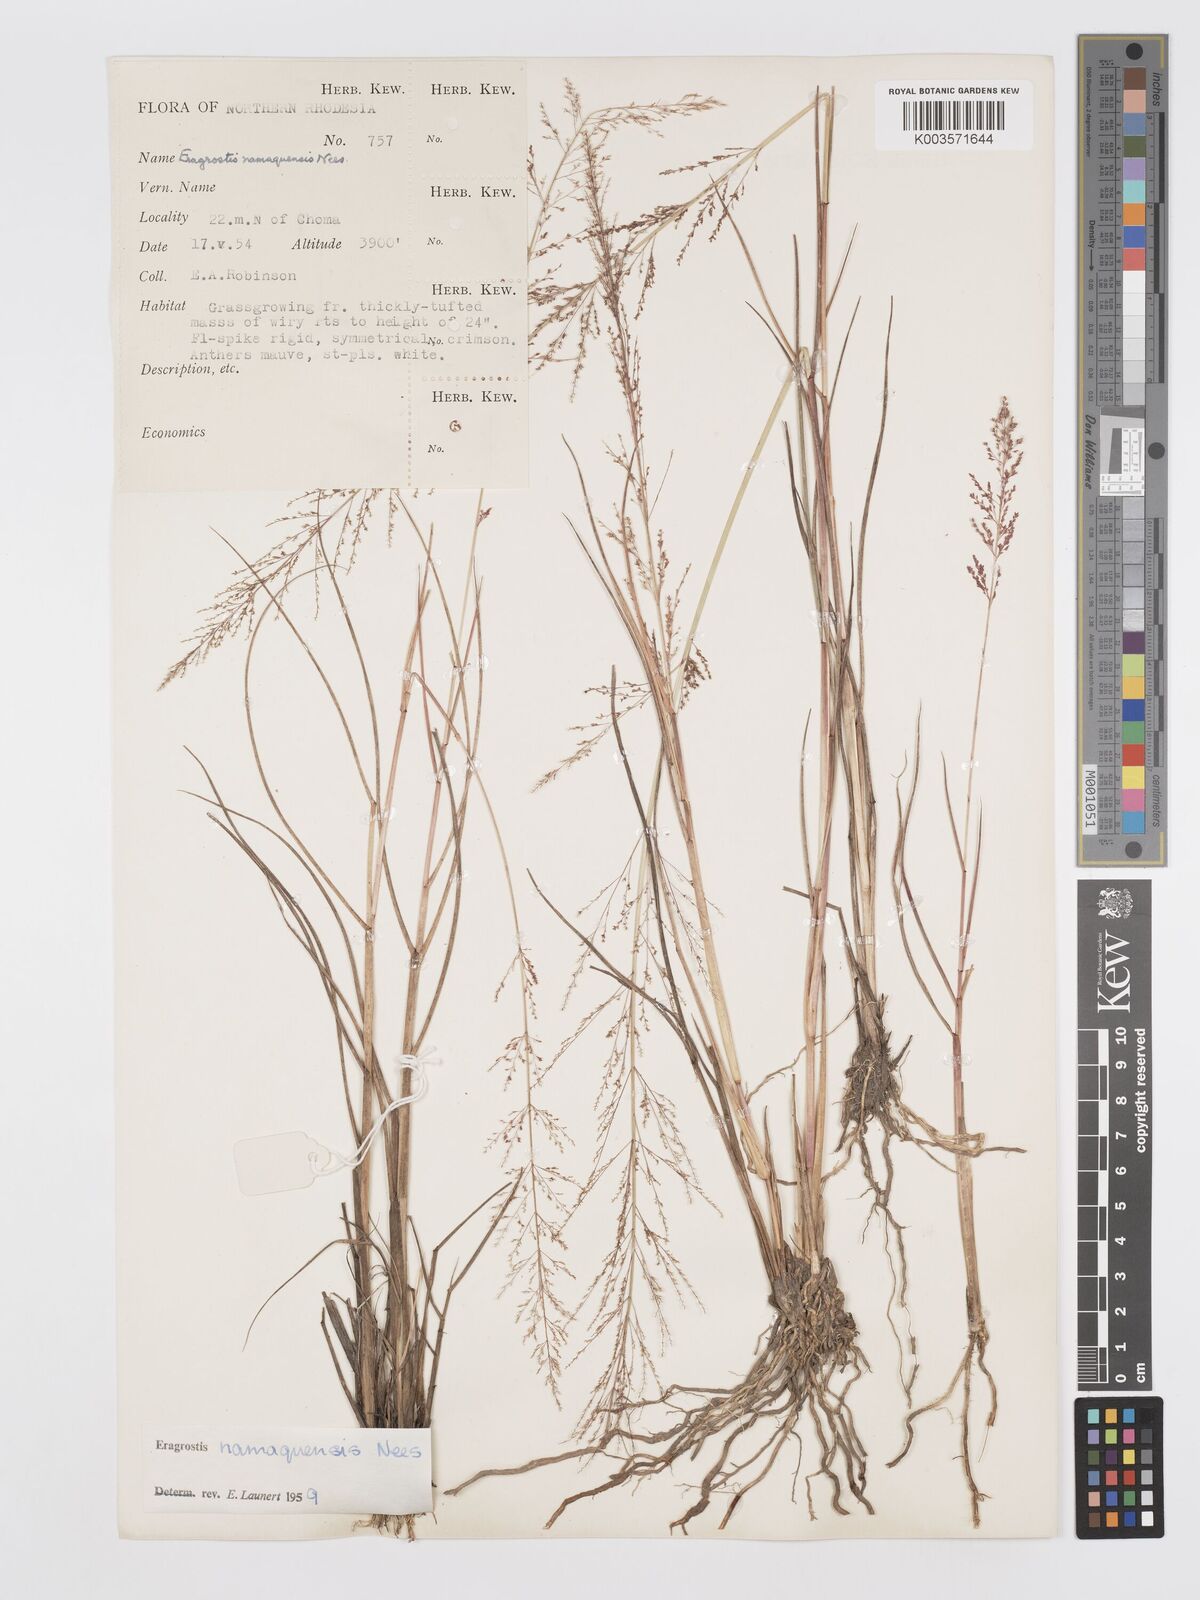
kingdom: Plantae
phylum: Tracheophyta
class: Liliopsida
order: Poales
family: Poaceae
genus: Eragrostis
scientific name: Eragrostis japonica
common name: Pond lovegrass
